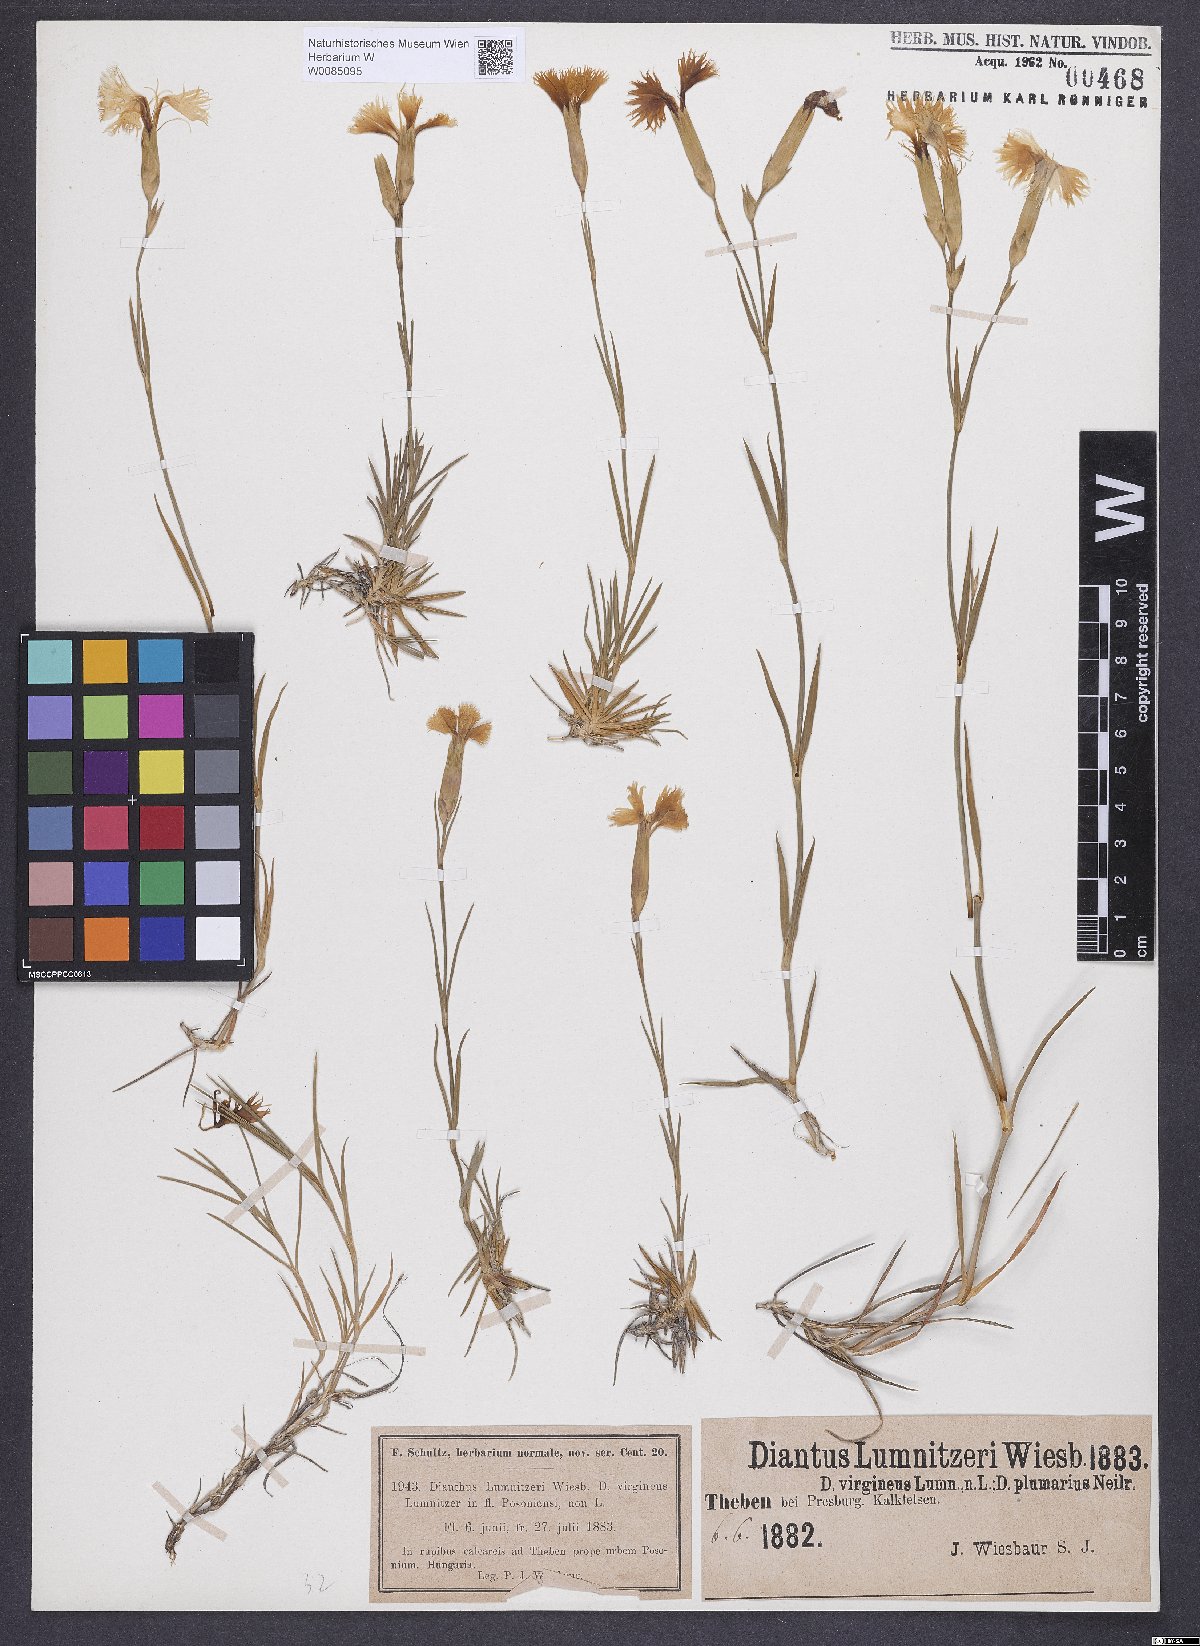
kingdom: Plantae
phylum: Tracheophyta
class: Magnoliopsida
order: Caryophyllales
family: Caryophyllaceae
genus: Dianthus
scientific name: Dianthus praecox
